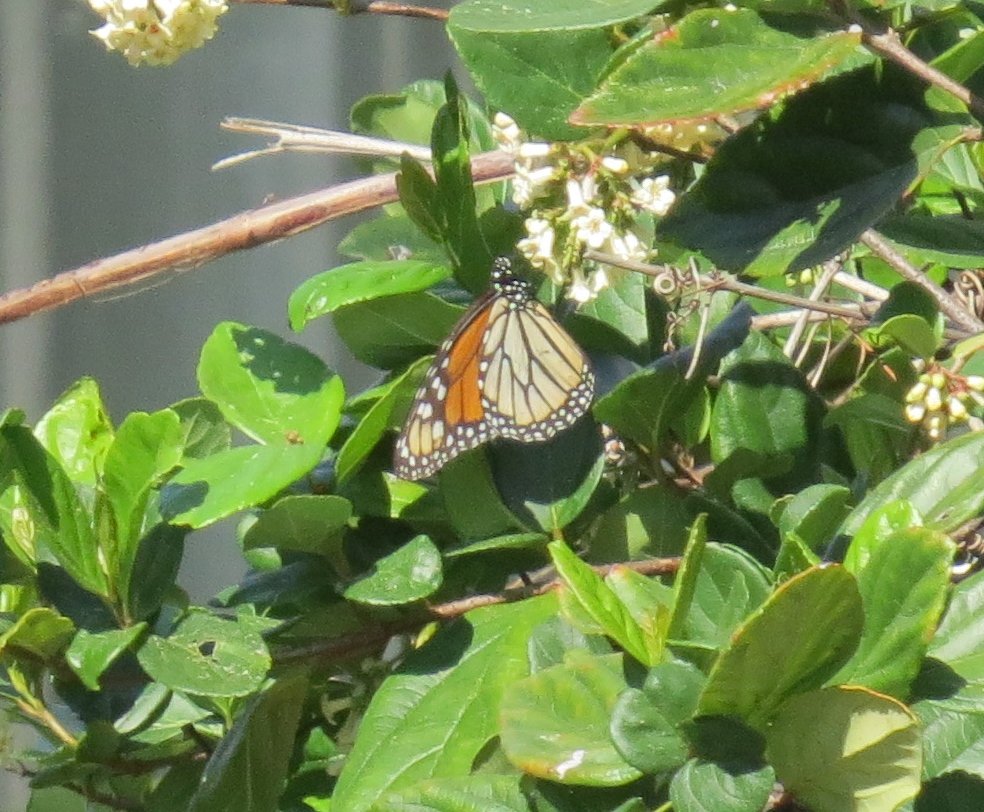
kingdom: Animalia
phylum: Arthropoda
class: Insecta
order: Lepidoptera
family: Nymphalidae
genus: Danaus
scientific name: Danaus plexippus
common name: Monarch
